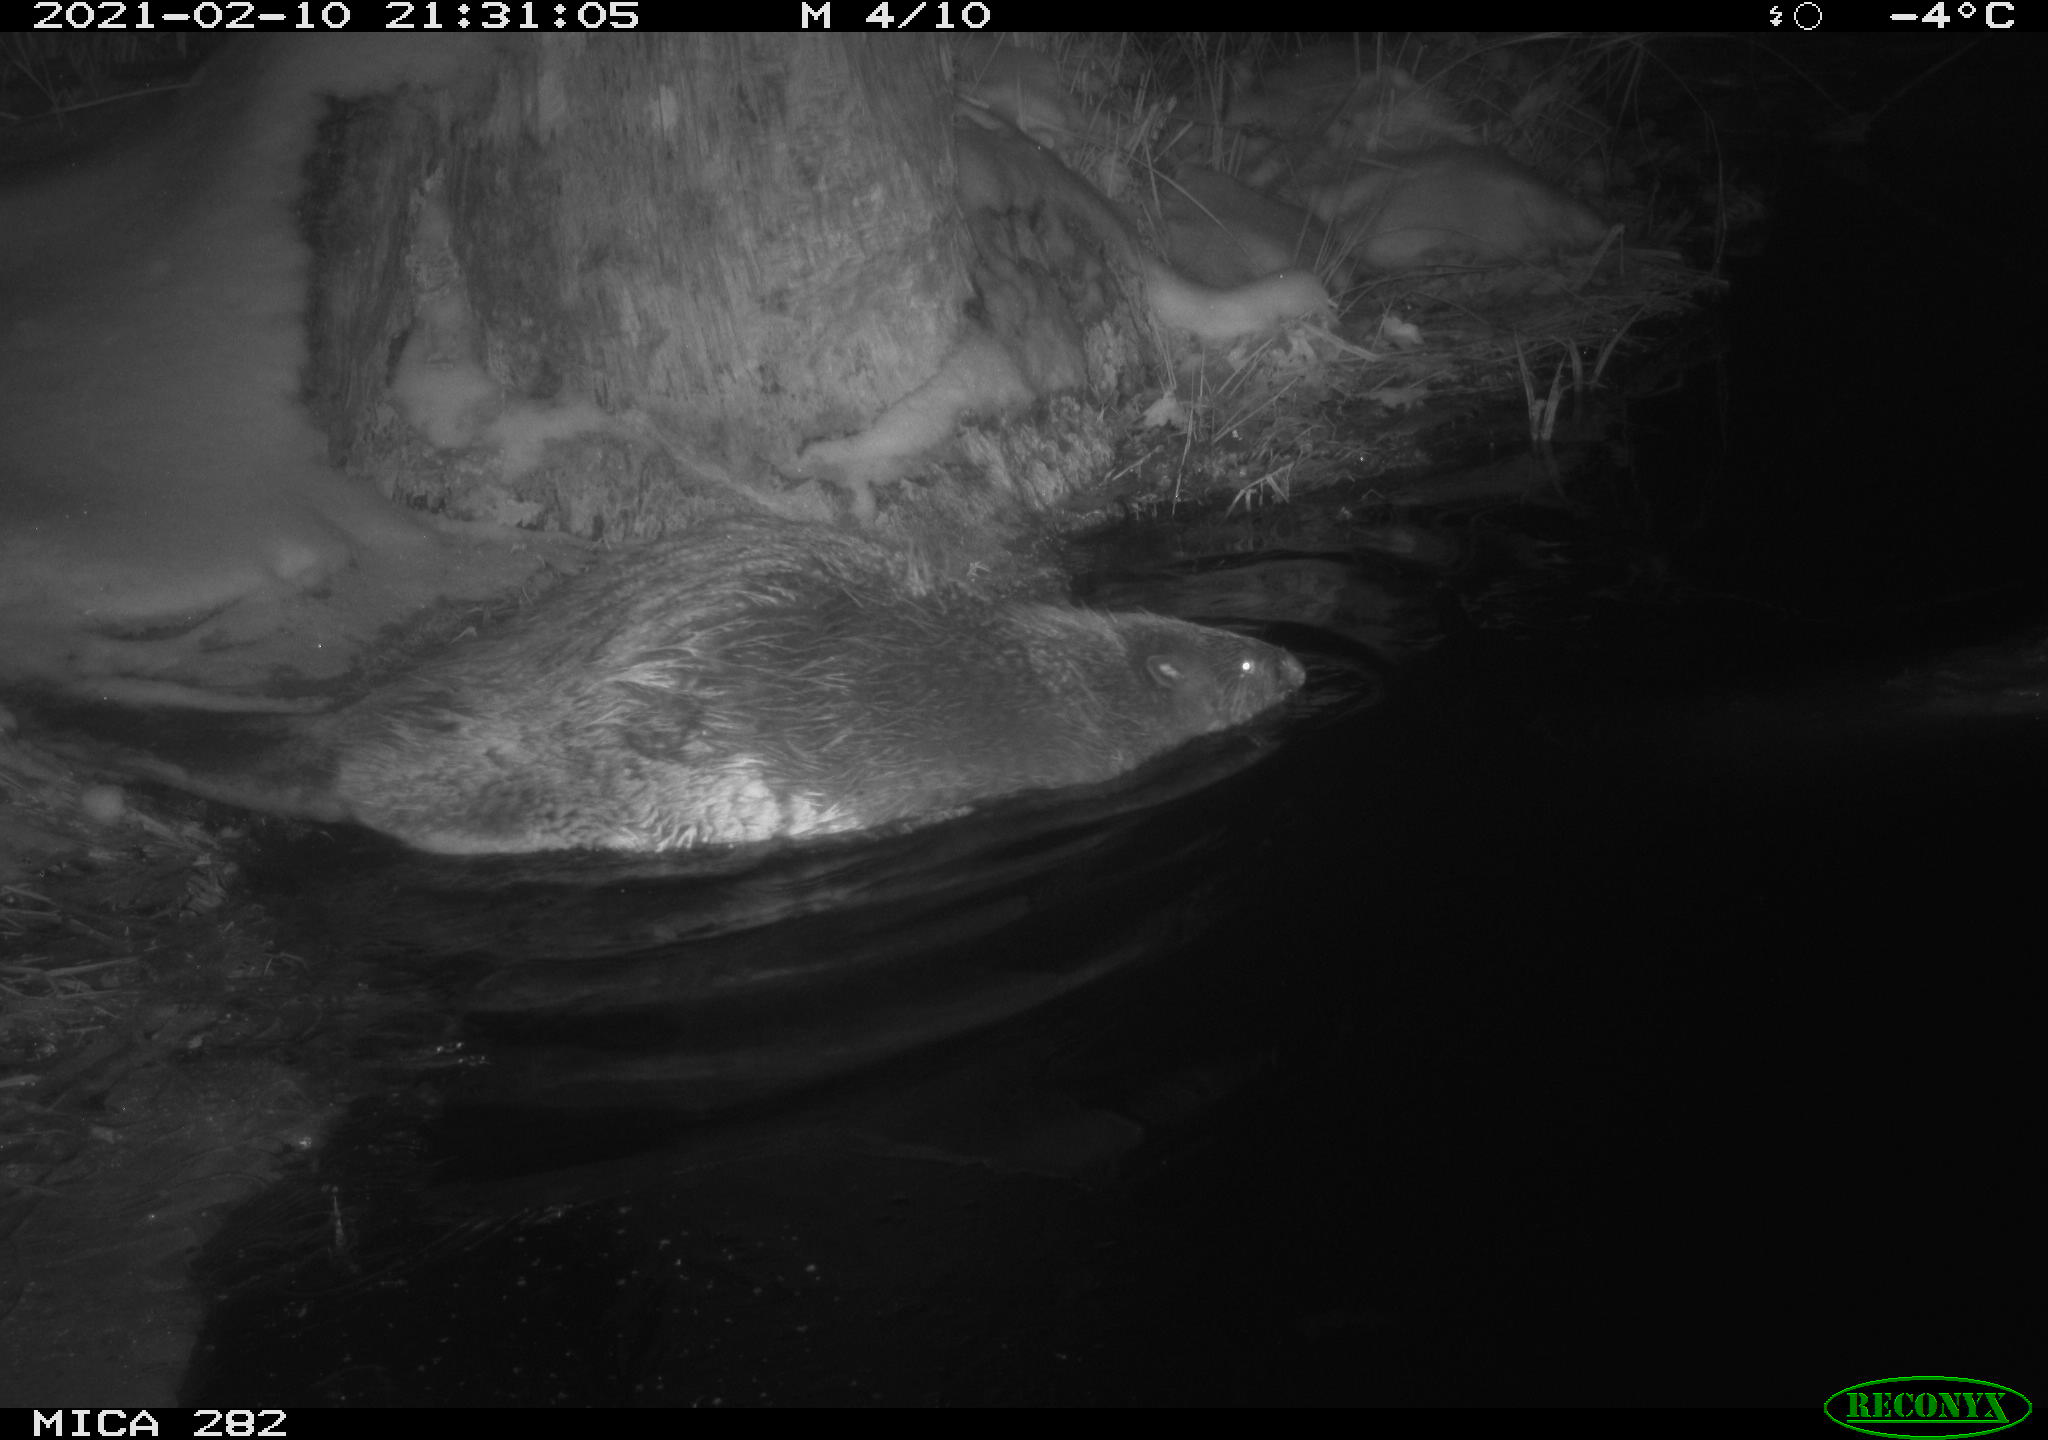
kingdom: Animalia
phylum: Chordata
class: Mammalia
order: Rodentia
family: Castoridae
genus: Castor
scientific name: Castor fiber
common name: Eurasian beaver
